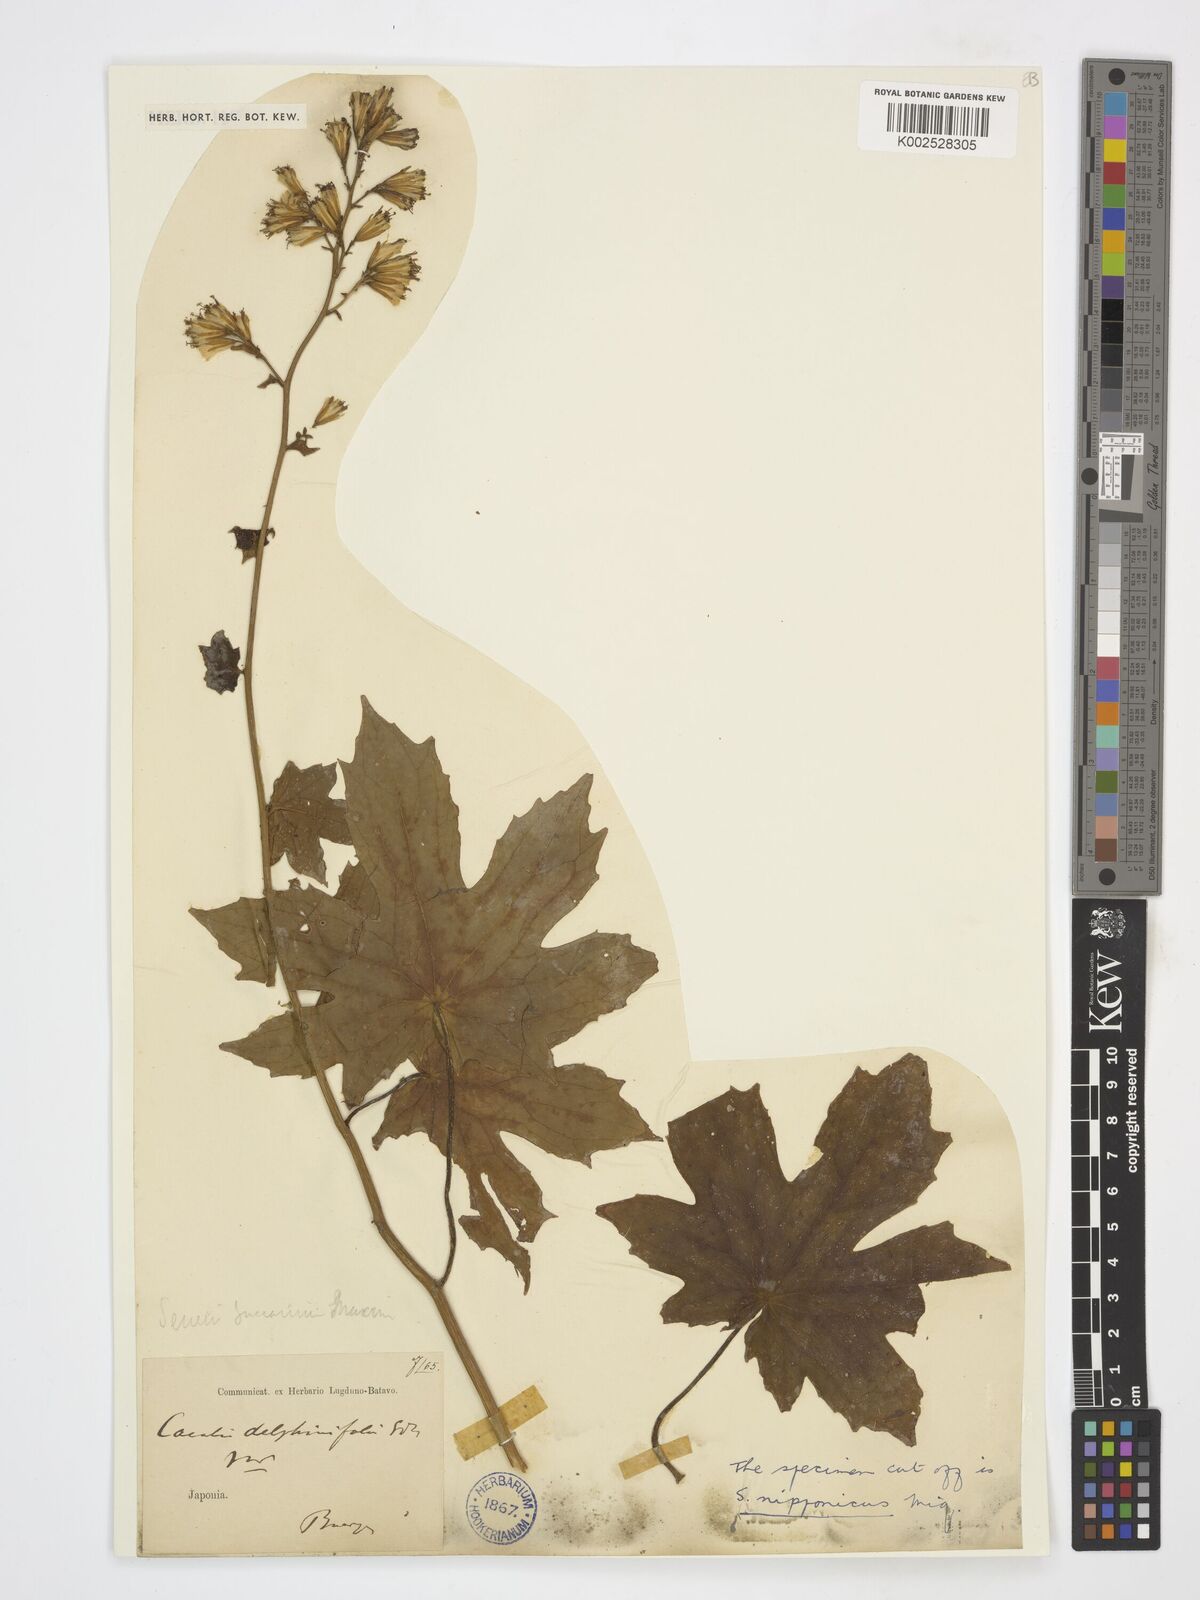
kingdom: Plantae
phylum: Tracheophyta
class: Magnoliopsida
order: Asterales
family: Asteraceae
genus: Parasenecio
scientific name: Parasenecio
